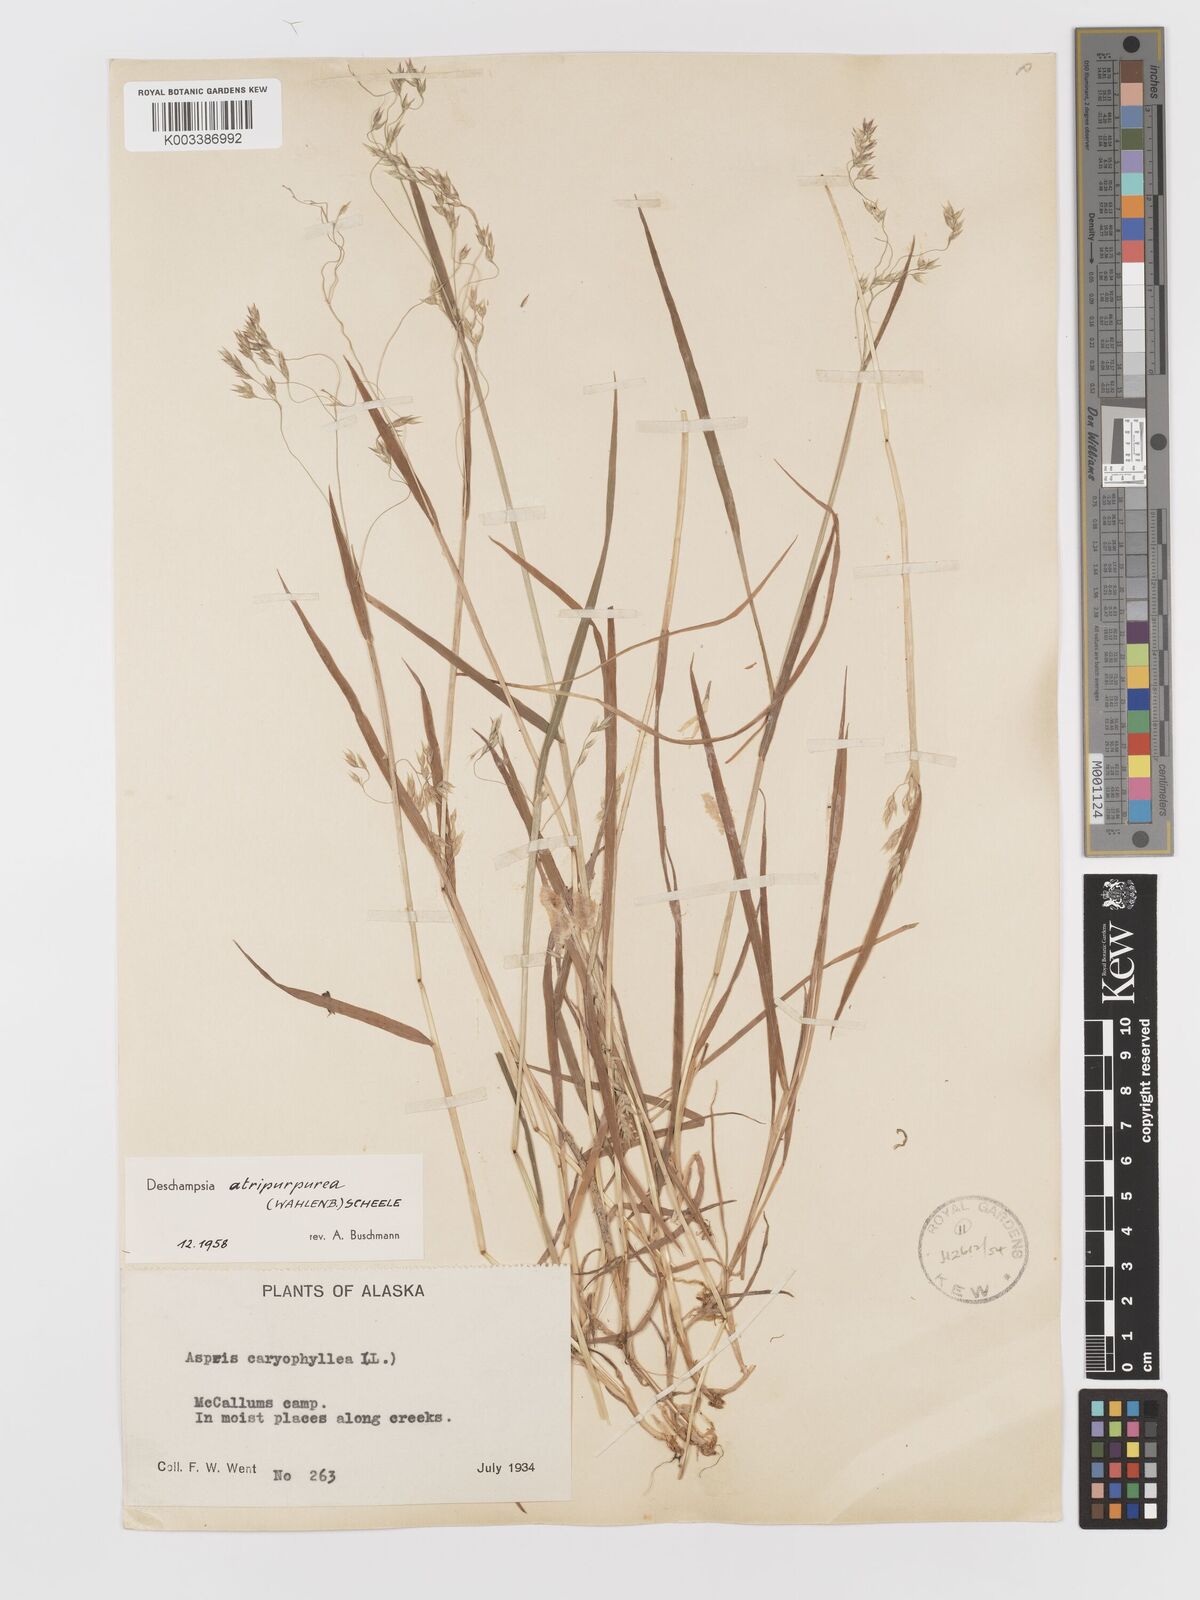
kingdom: Plantae
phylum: Tracheophyta
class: Liliopsida
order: Poales
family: Poaceae
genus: Vahlodea
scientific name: Vahlodea atropurpurea
